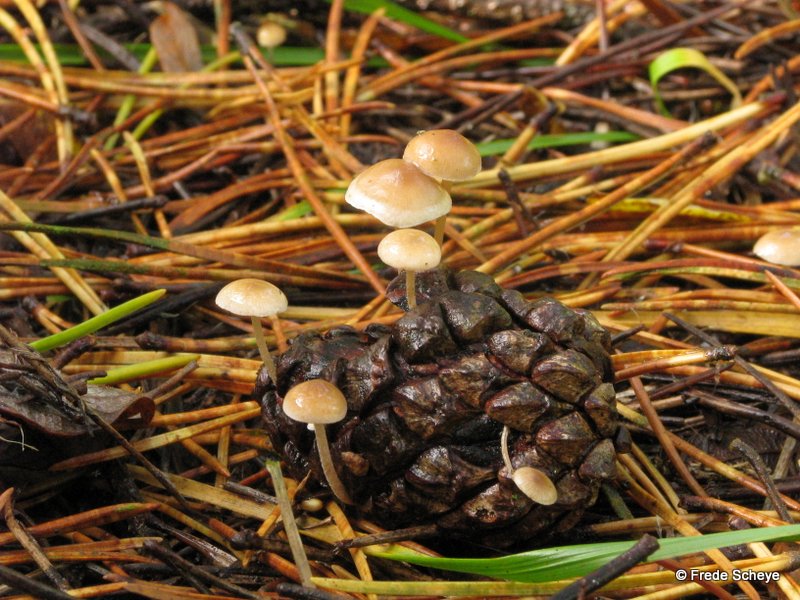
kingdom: Fungi
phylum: Basidiomycota
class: Agaricomycetes
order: Agaricales
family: Marasmiaceae
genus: Baeospora
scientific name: Baeospora myosura
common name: koglebruskhat
